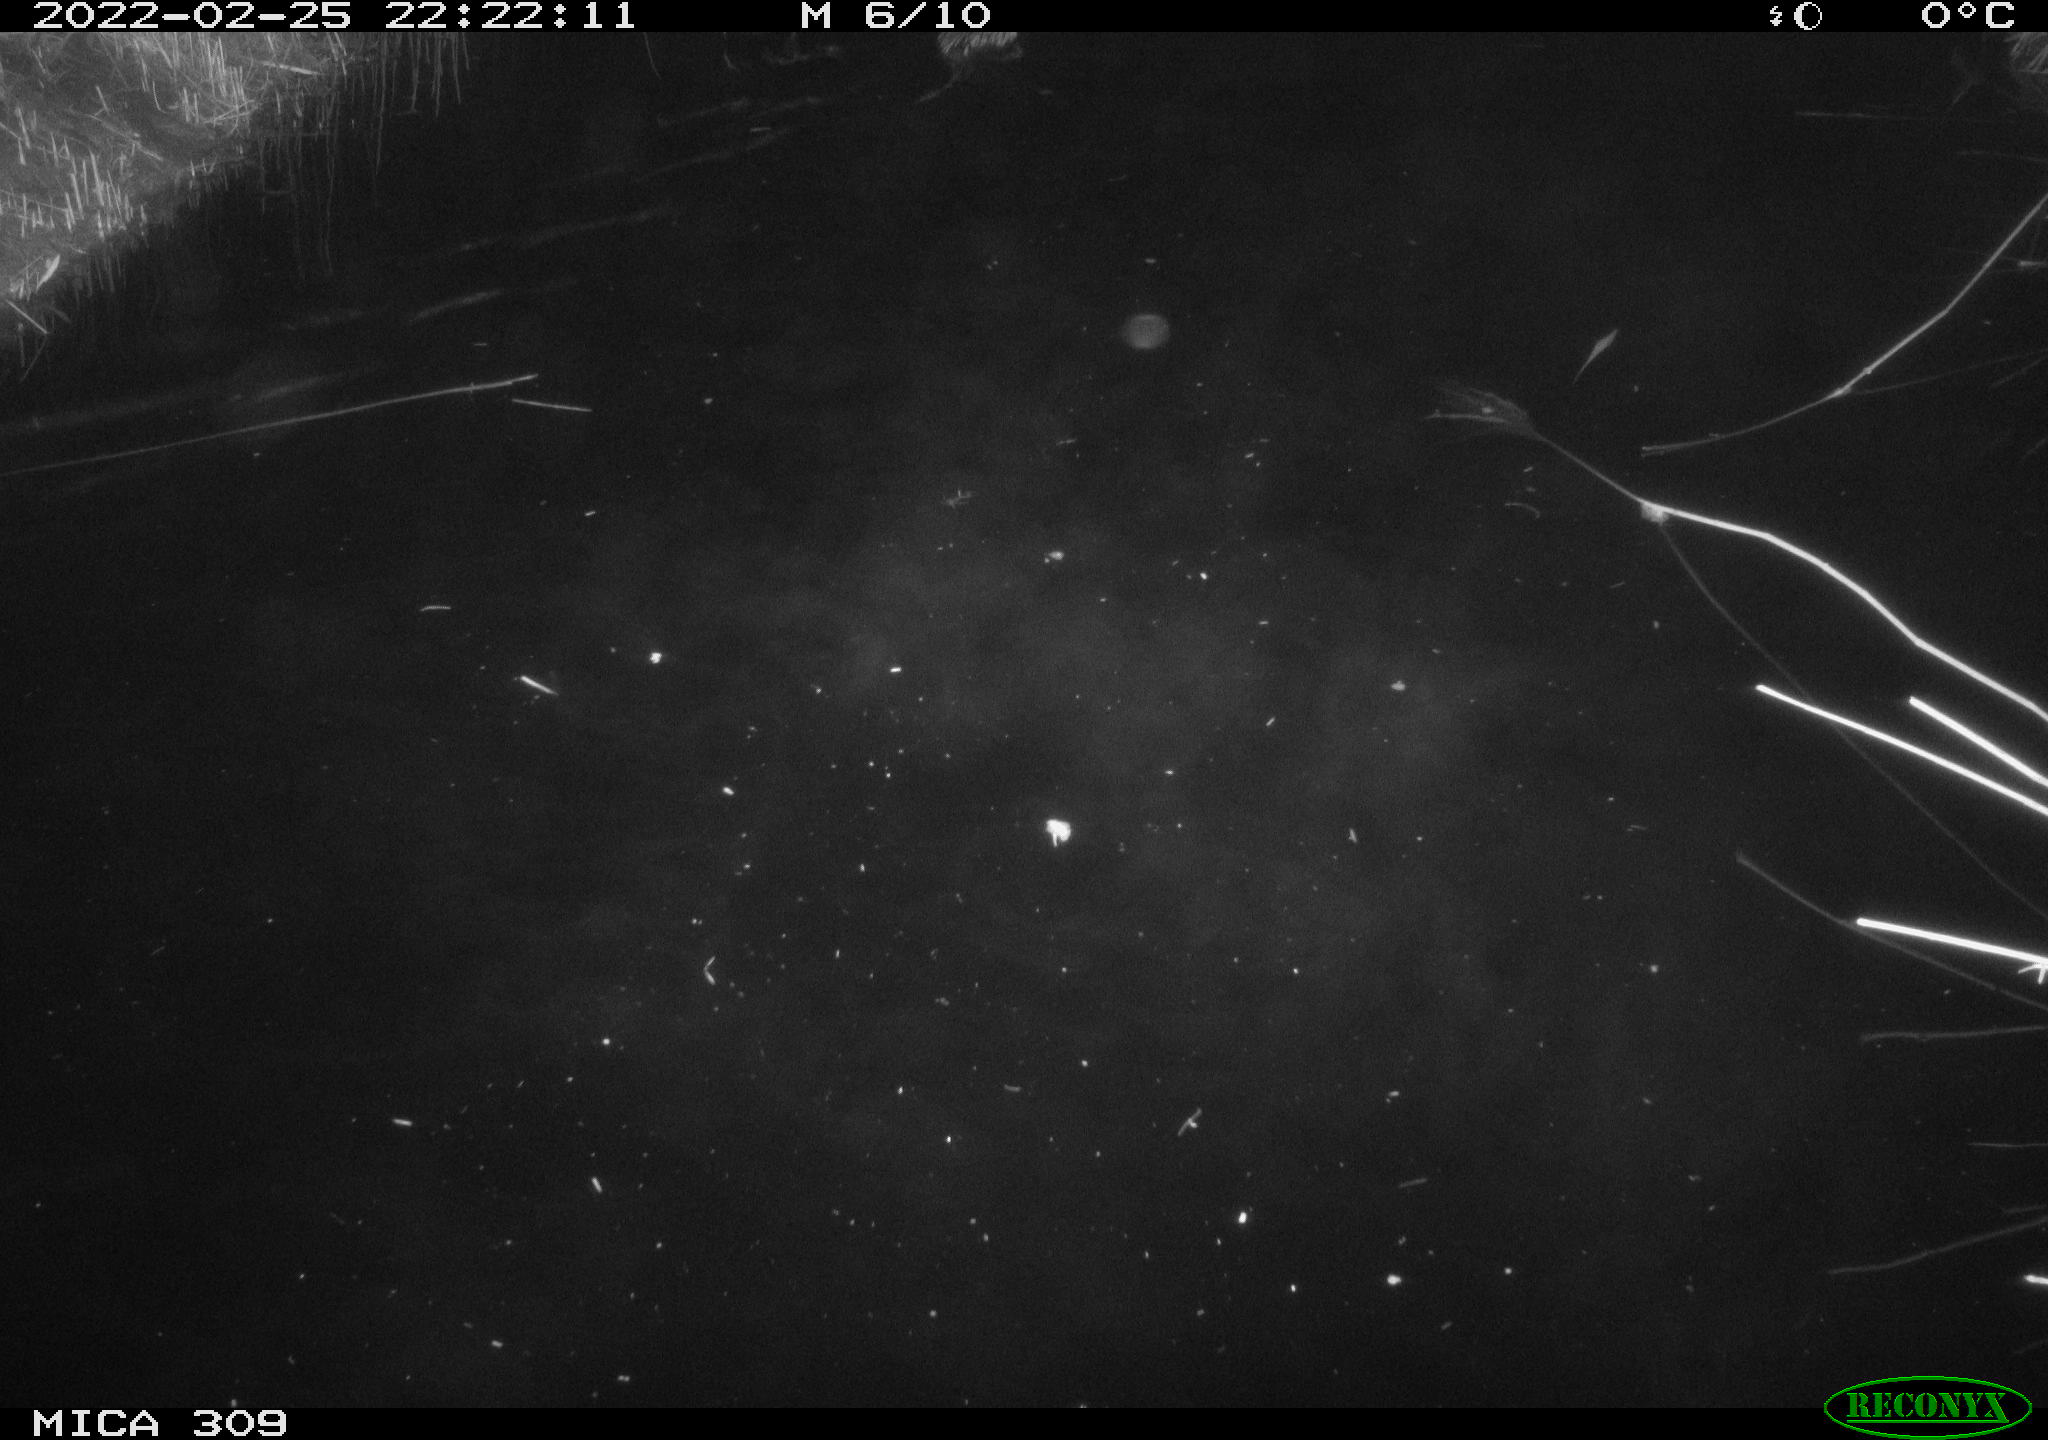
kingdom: Animalia
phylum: Chordata
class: Mammalia
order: Rodentia
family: Cricetidae
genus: Ondatra
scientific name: Ondatra zibethicus
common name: Muskrat
